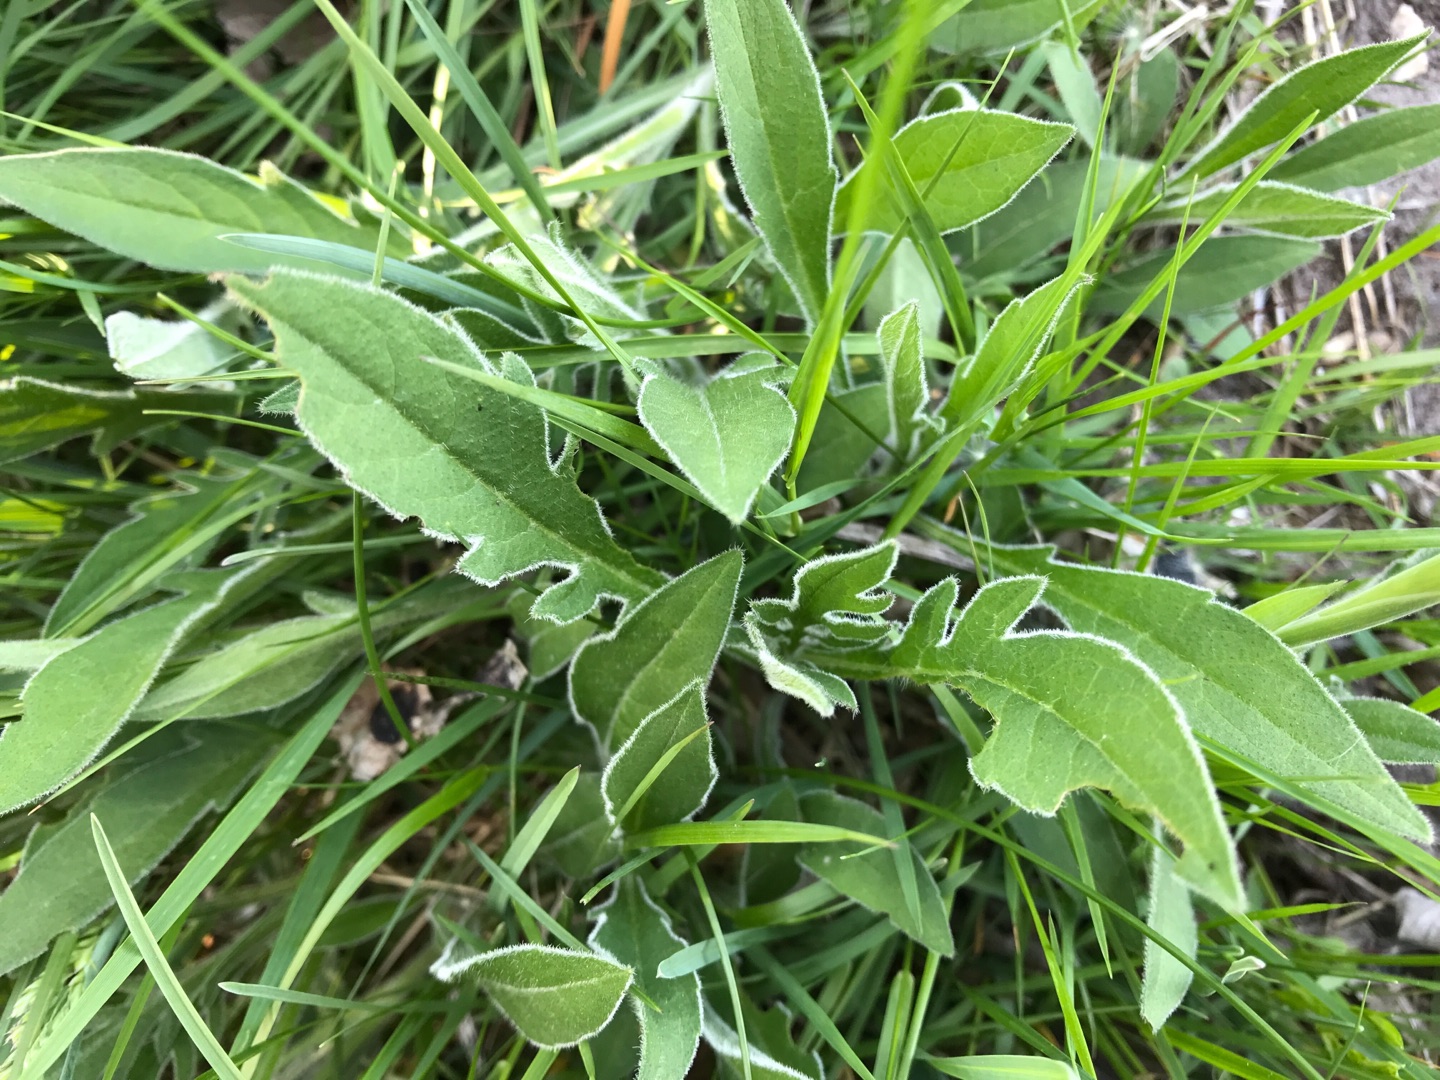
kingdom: Plantae
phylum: Tracheophyta
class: Magnoliopsida
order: Dipsacales
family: Caprifoliaceae
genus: Knautia
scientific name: Knautia arvensis
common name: Blåhat
